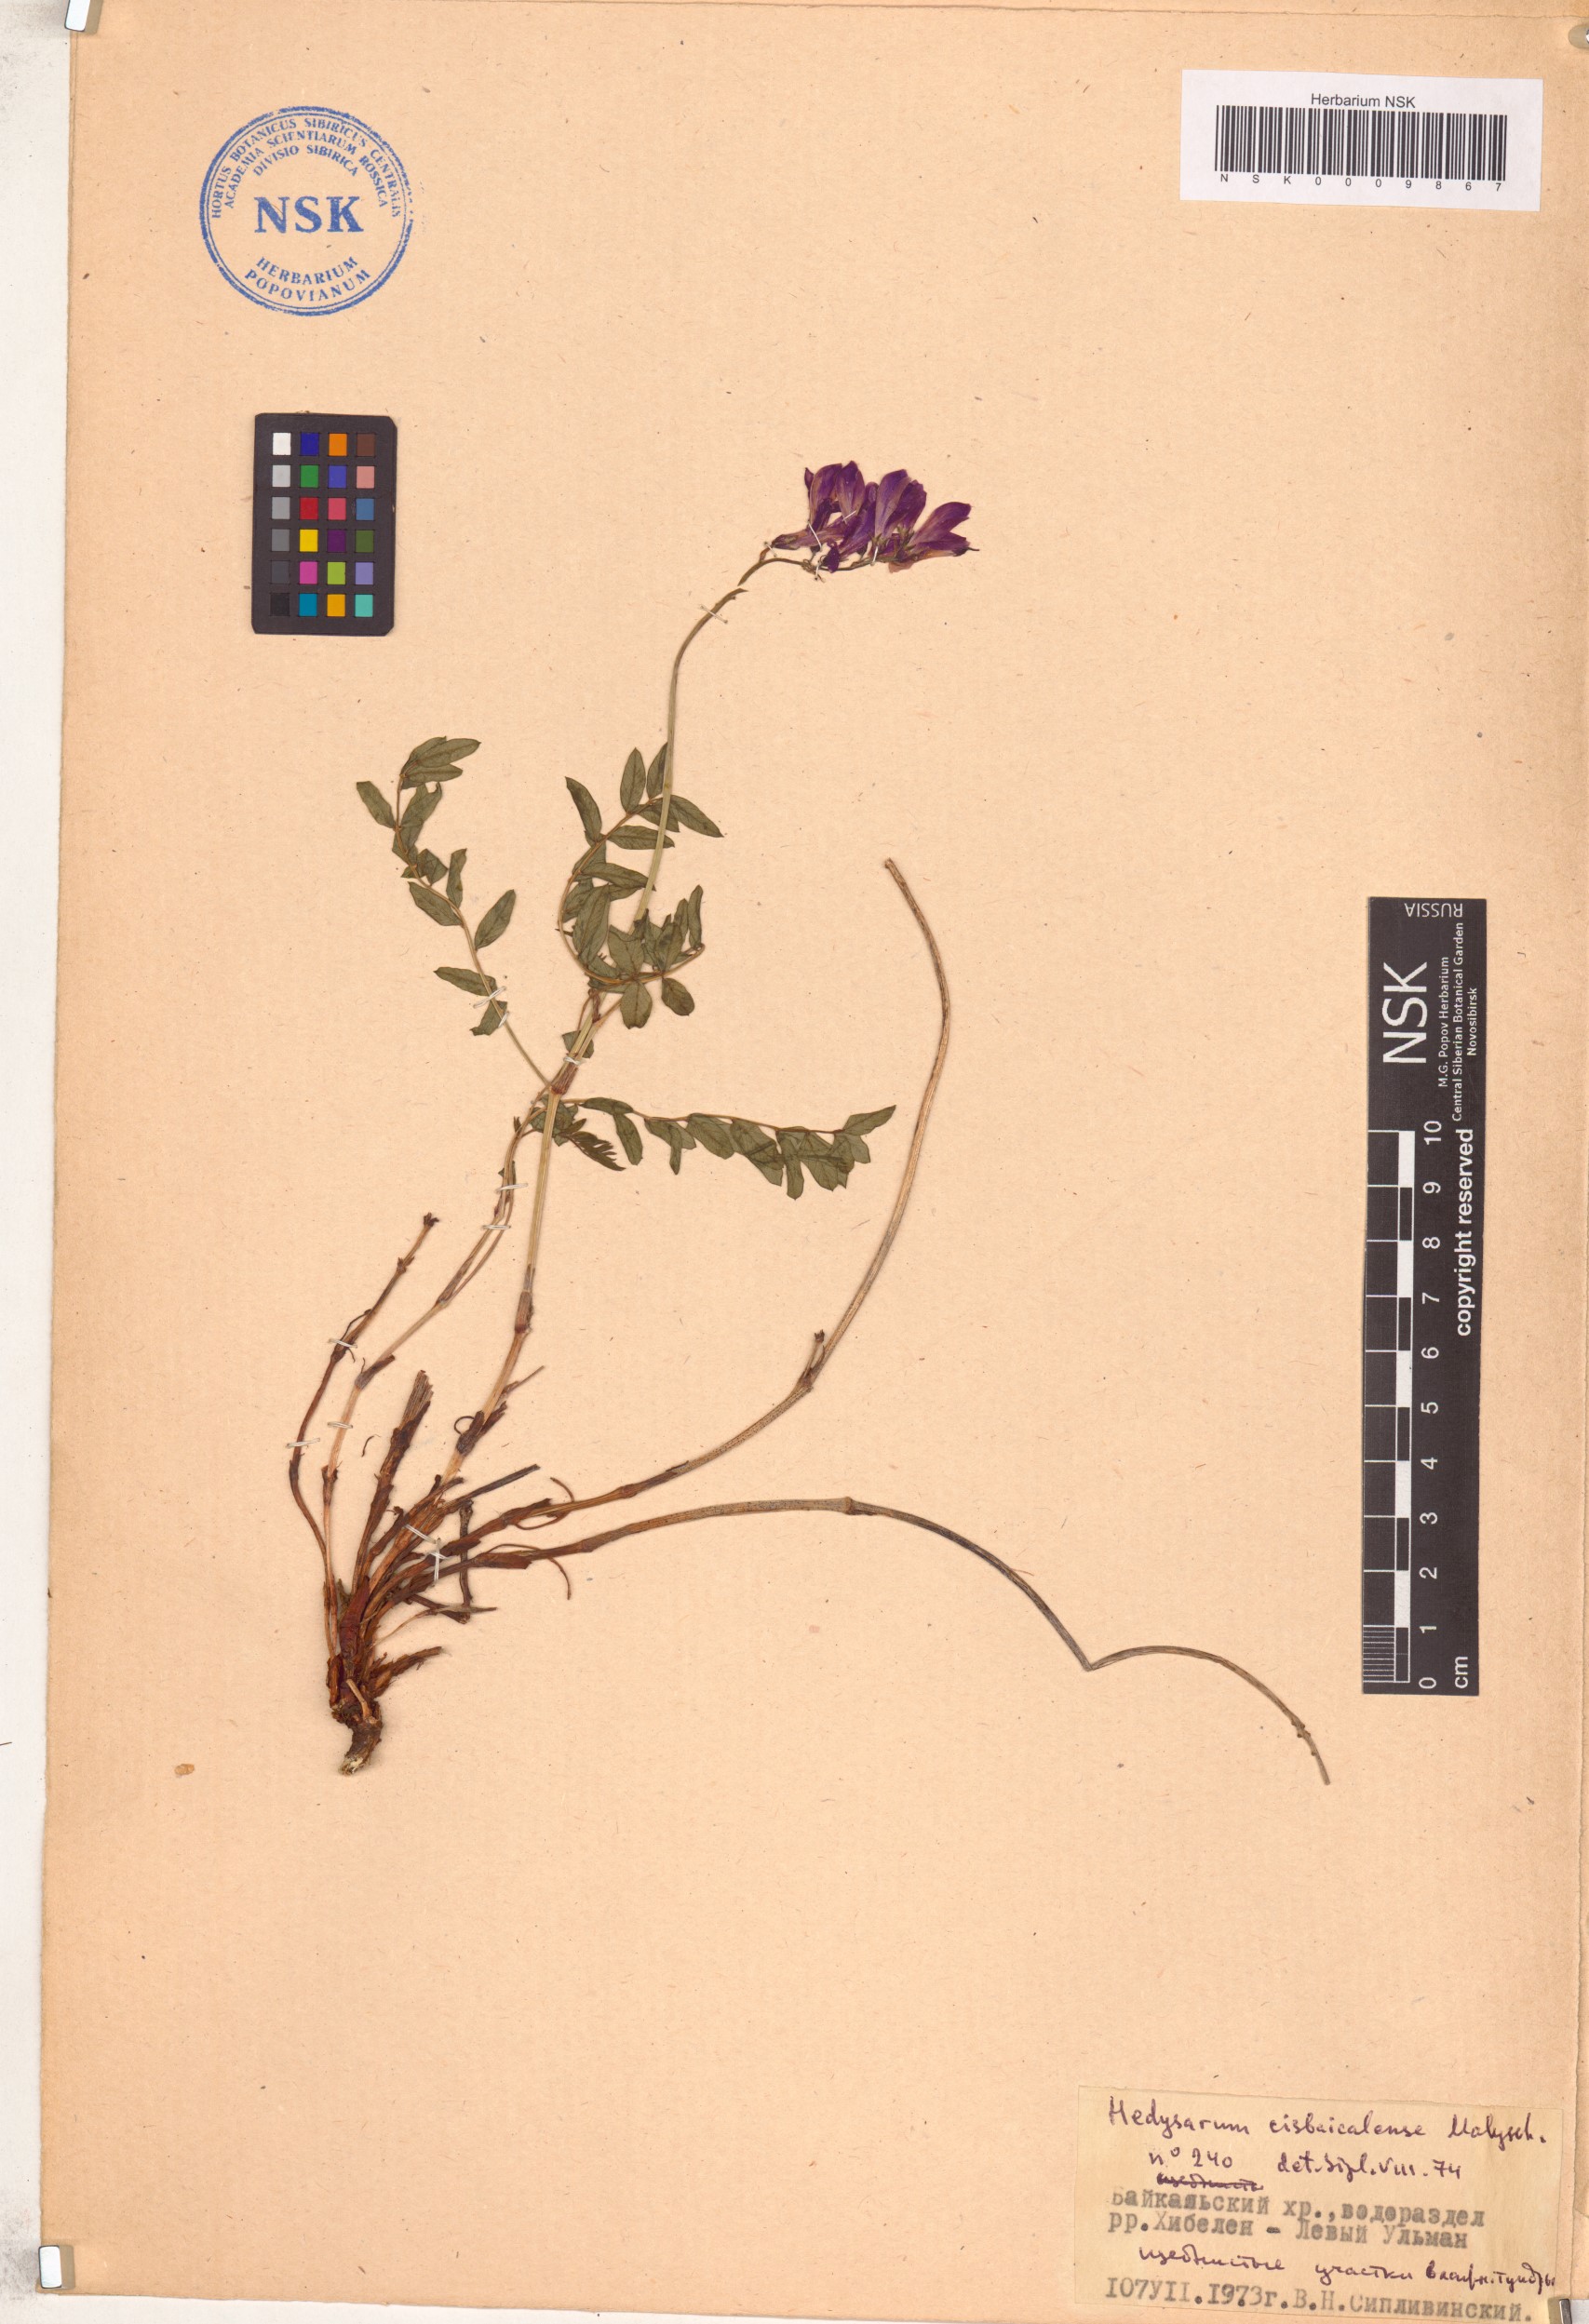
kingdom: Plantae
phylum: Tracheophyta
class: Magnoliopsida
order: Fabales
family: Fabaceae
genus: Hedysarum
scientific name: Hedysarum cisbaicalense
